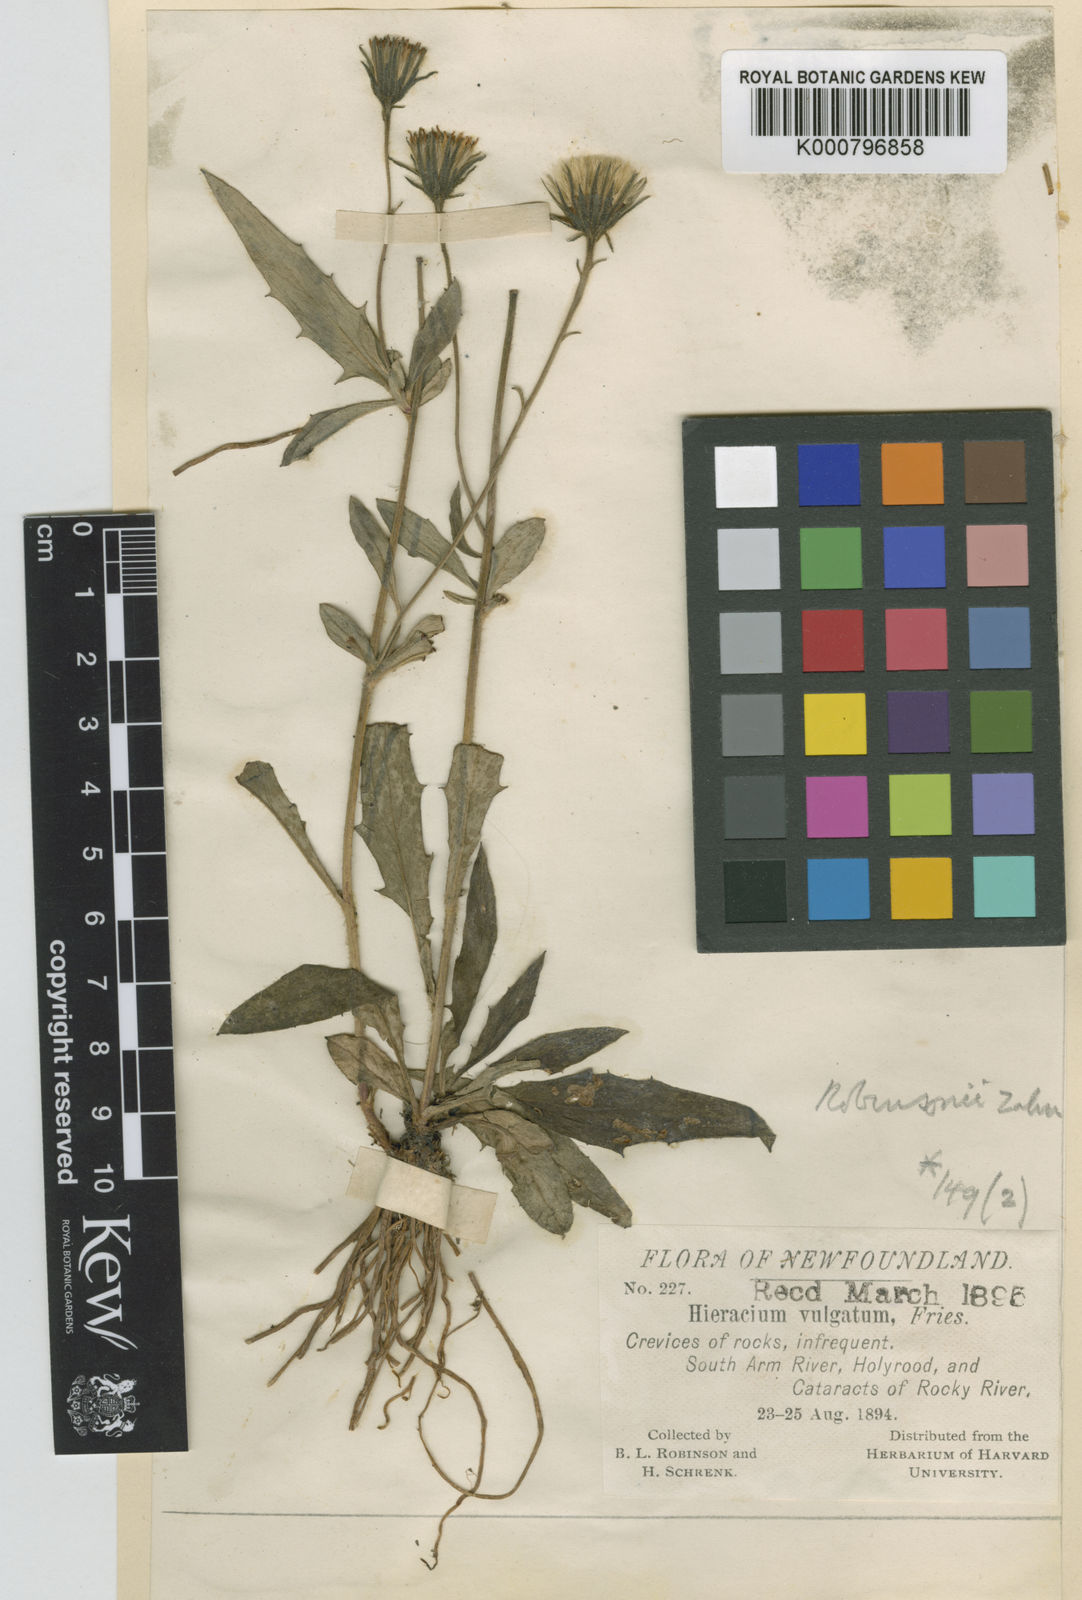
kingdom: Plantae
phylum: Tracheophyta
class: Magnoliopsida
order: Asterales
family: Asteraceae
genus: Hieracium
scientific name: Hieracium smolandicum
